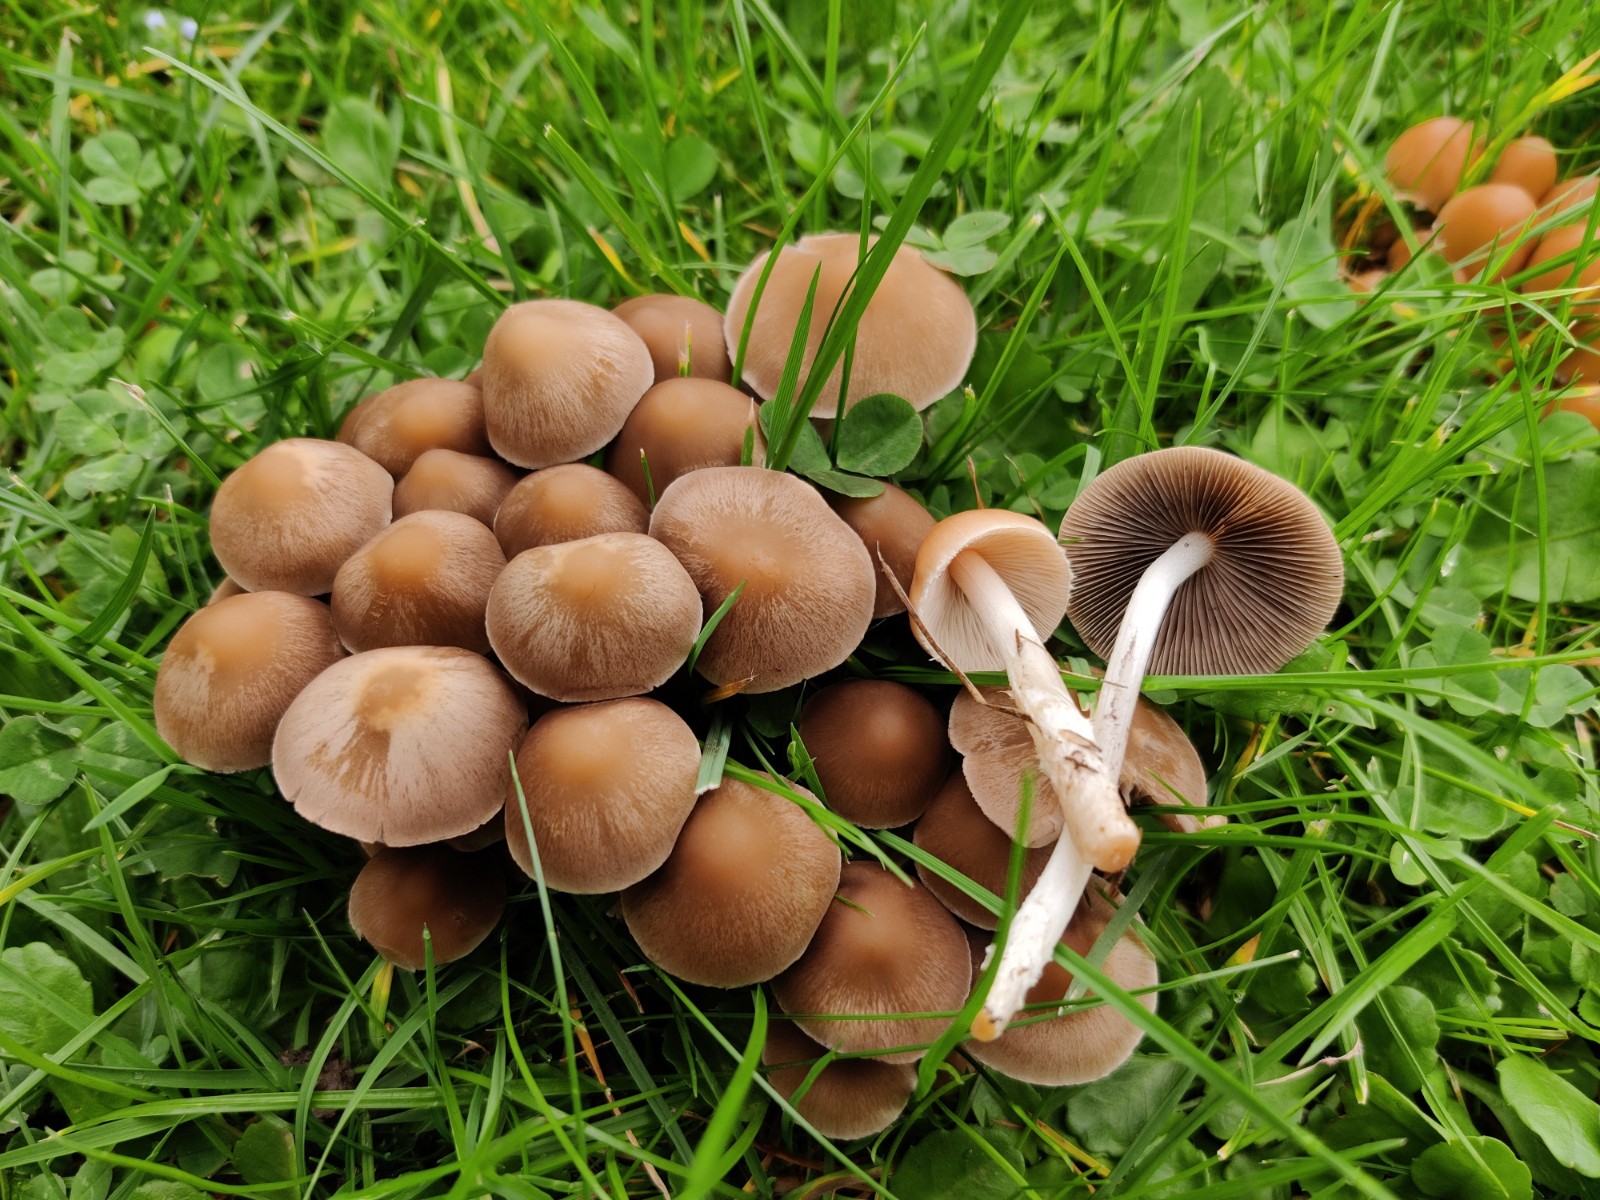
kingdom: Fungi
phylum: Basidiomycota
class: Agaricomycetes
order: Agaricales
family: Psathyrellaceae
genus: Britzelmayria
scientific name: Britzelmayria multipedata
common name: knippe-mørkhat
